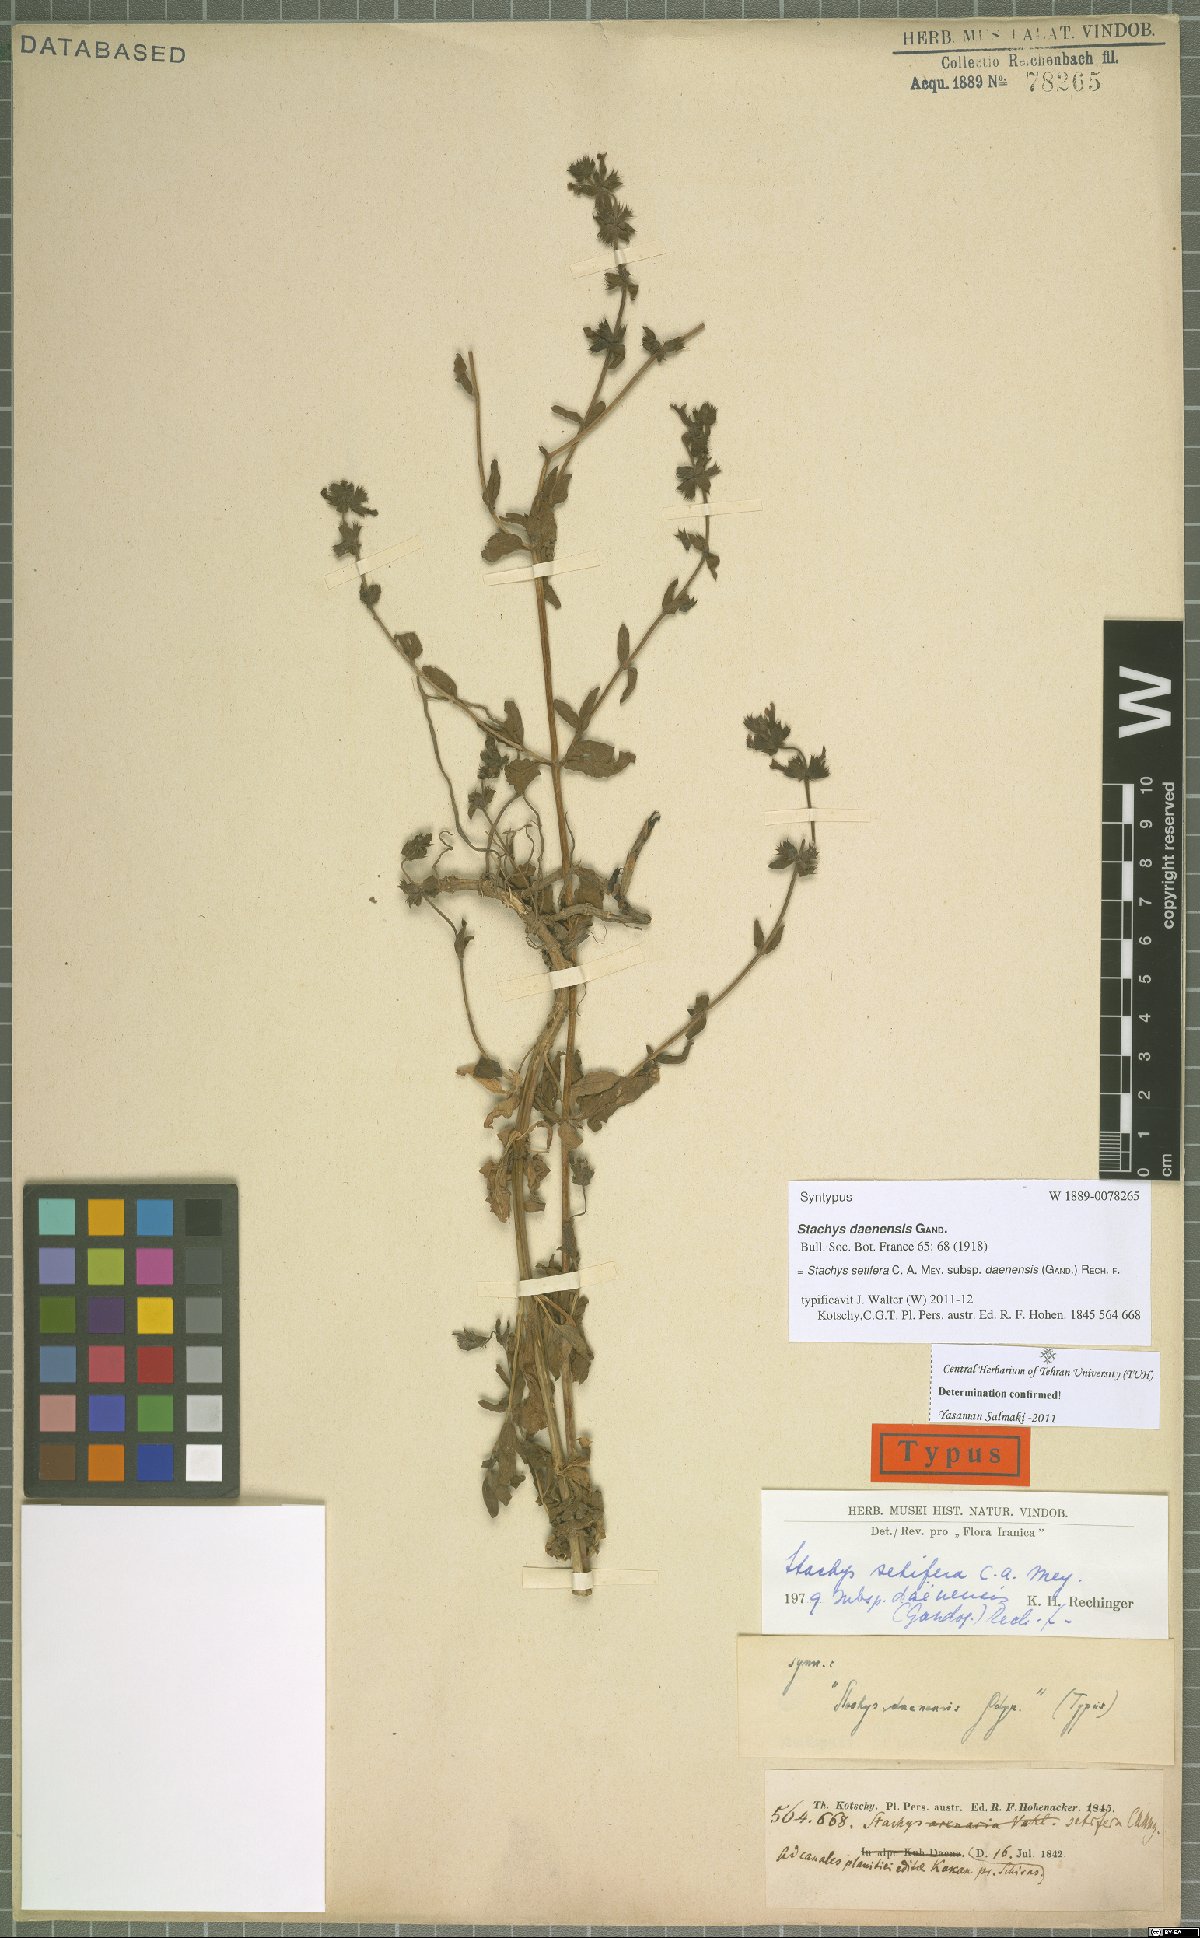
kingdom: Plantae
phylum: Tracheophyta
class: Magnoliopsida
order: Lamiales
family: Lamiaceae
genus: Stachys
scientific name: Stachys setifera
